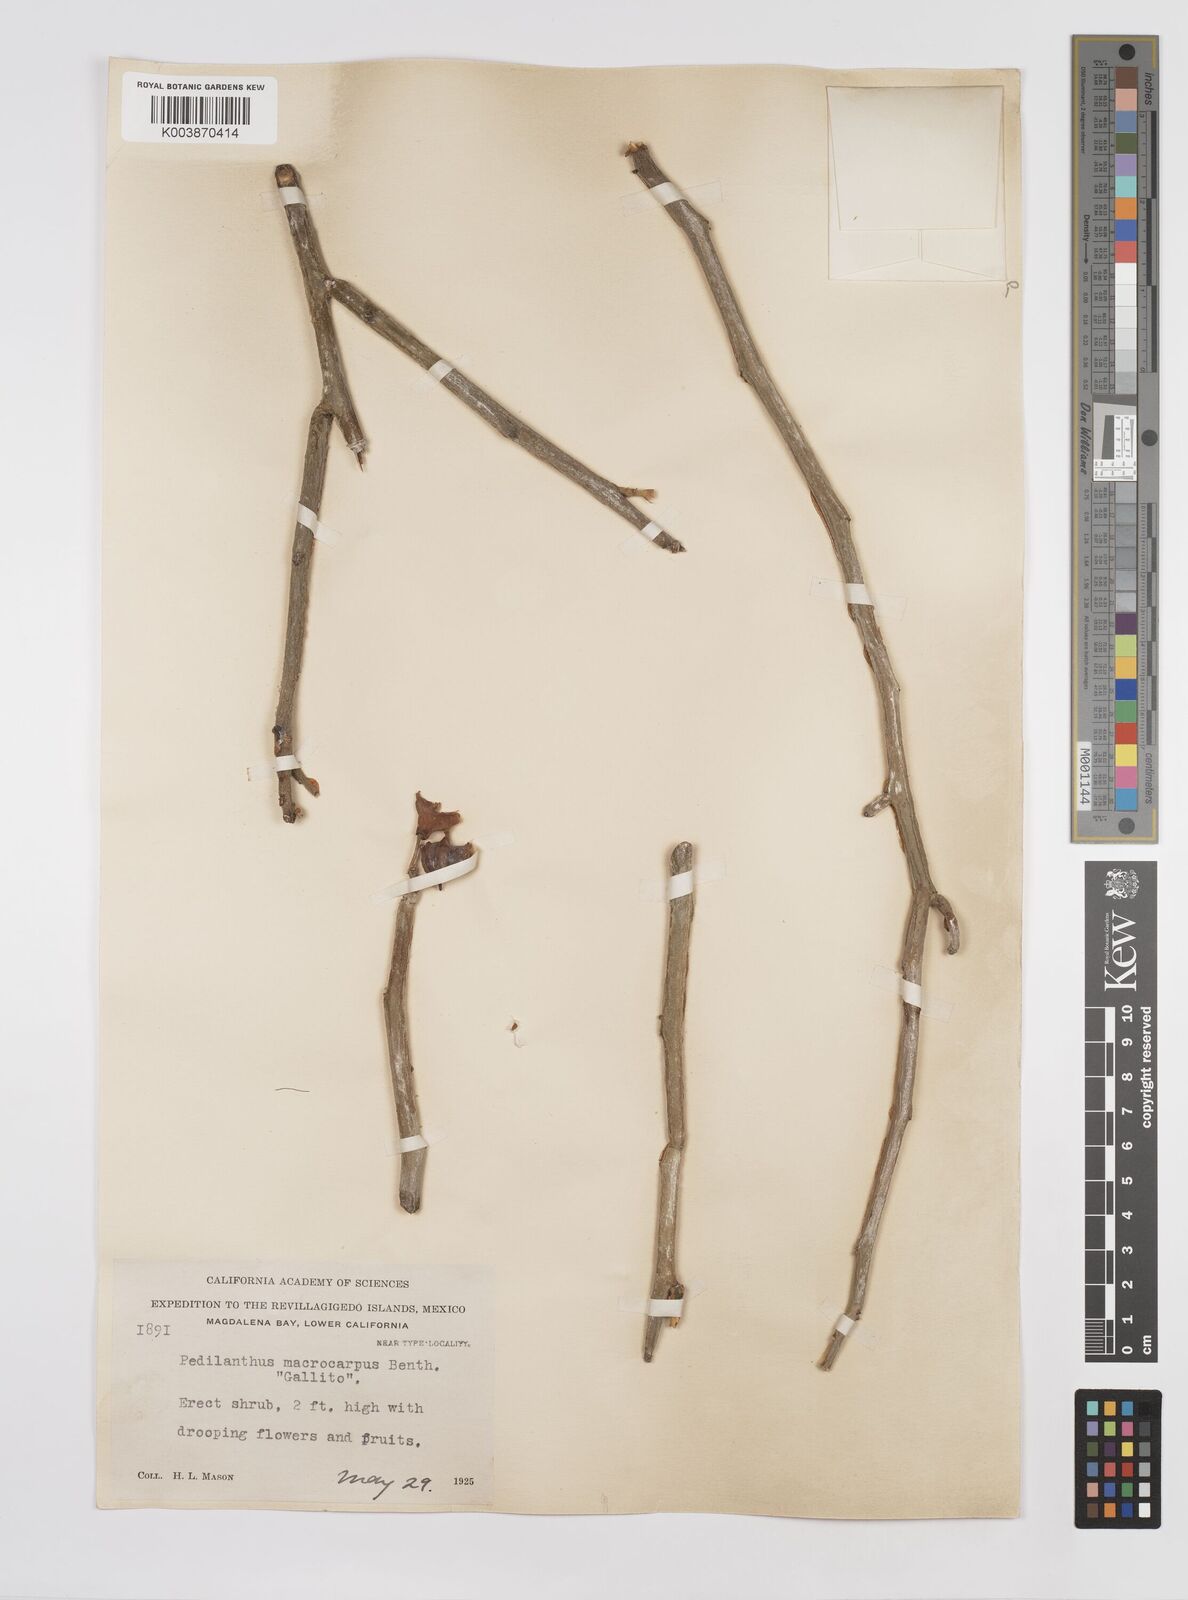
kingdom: Plantae
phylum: Tracheophyta
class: Magnoliopsida
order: Malpighiales
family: Euphorbiaceae
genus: Euphorbia
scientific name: Euphorbia lomelii
